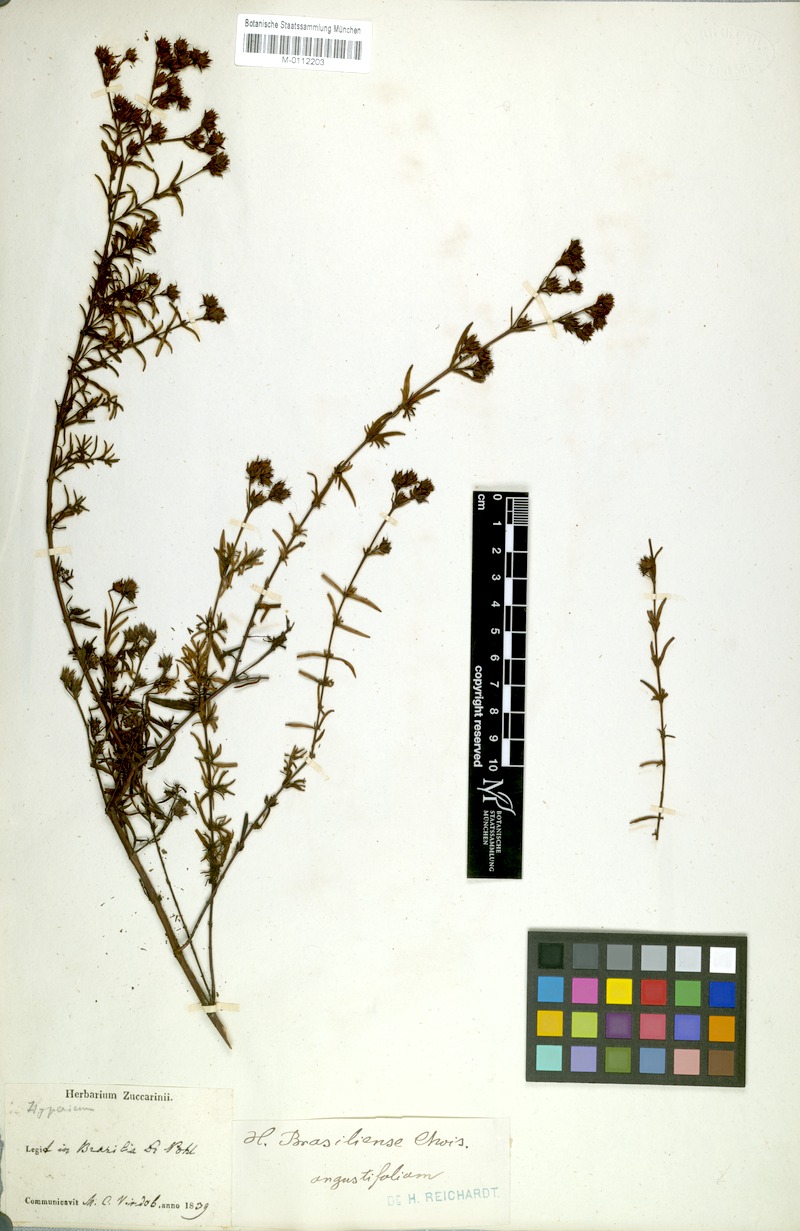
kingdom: Plantae
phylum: Tracheophyta
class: Magnoliopsida
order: Malpighiales
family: Hypericaceae
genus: Hypericum
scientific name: Hypericum brasiliense
